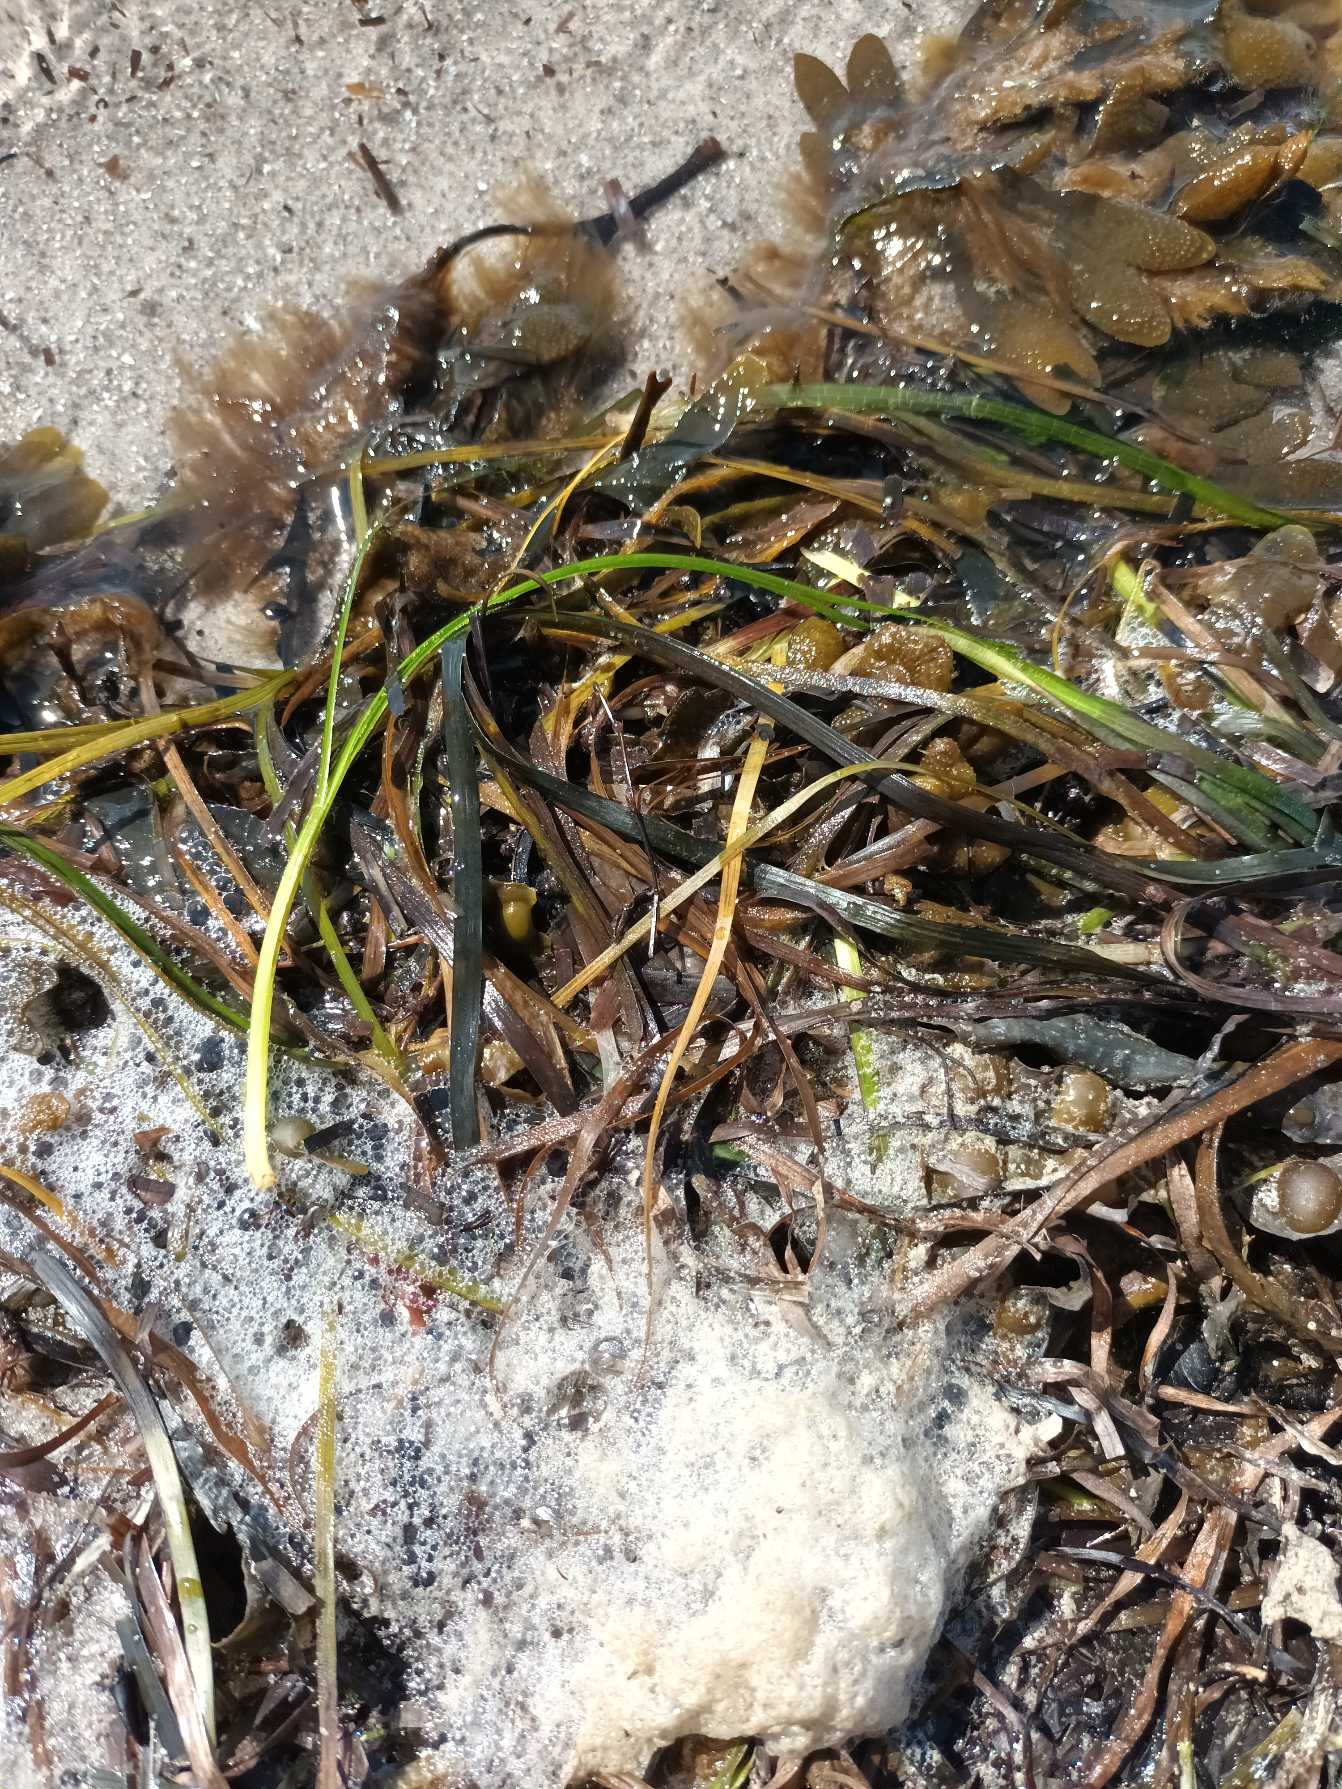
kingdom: Plantae
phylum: Tracheophyta
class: Liliopsida
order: Alismatales
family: Zosteraceae
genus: Zostera
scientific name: Zostera marina
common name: Almindelig bændeltang
